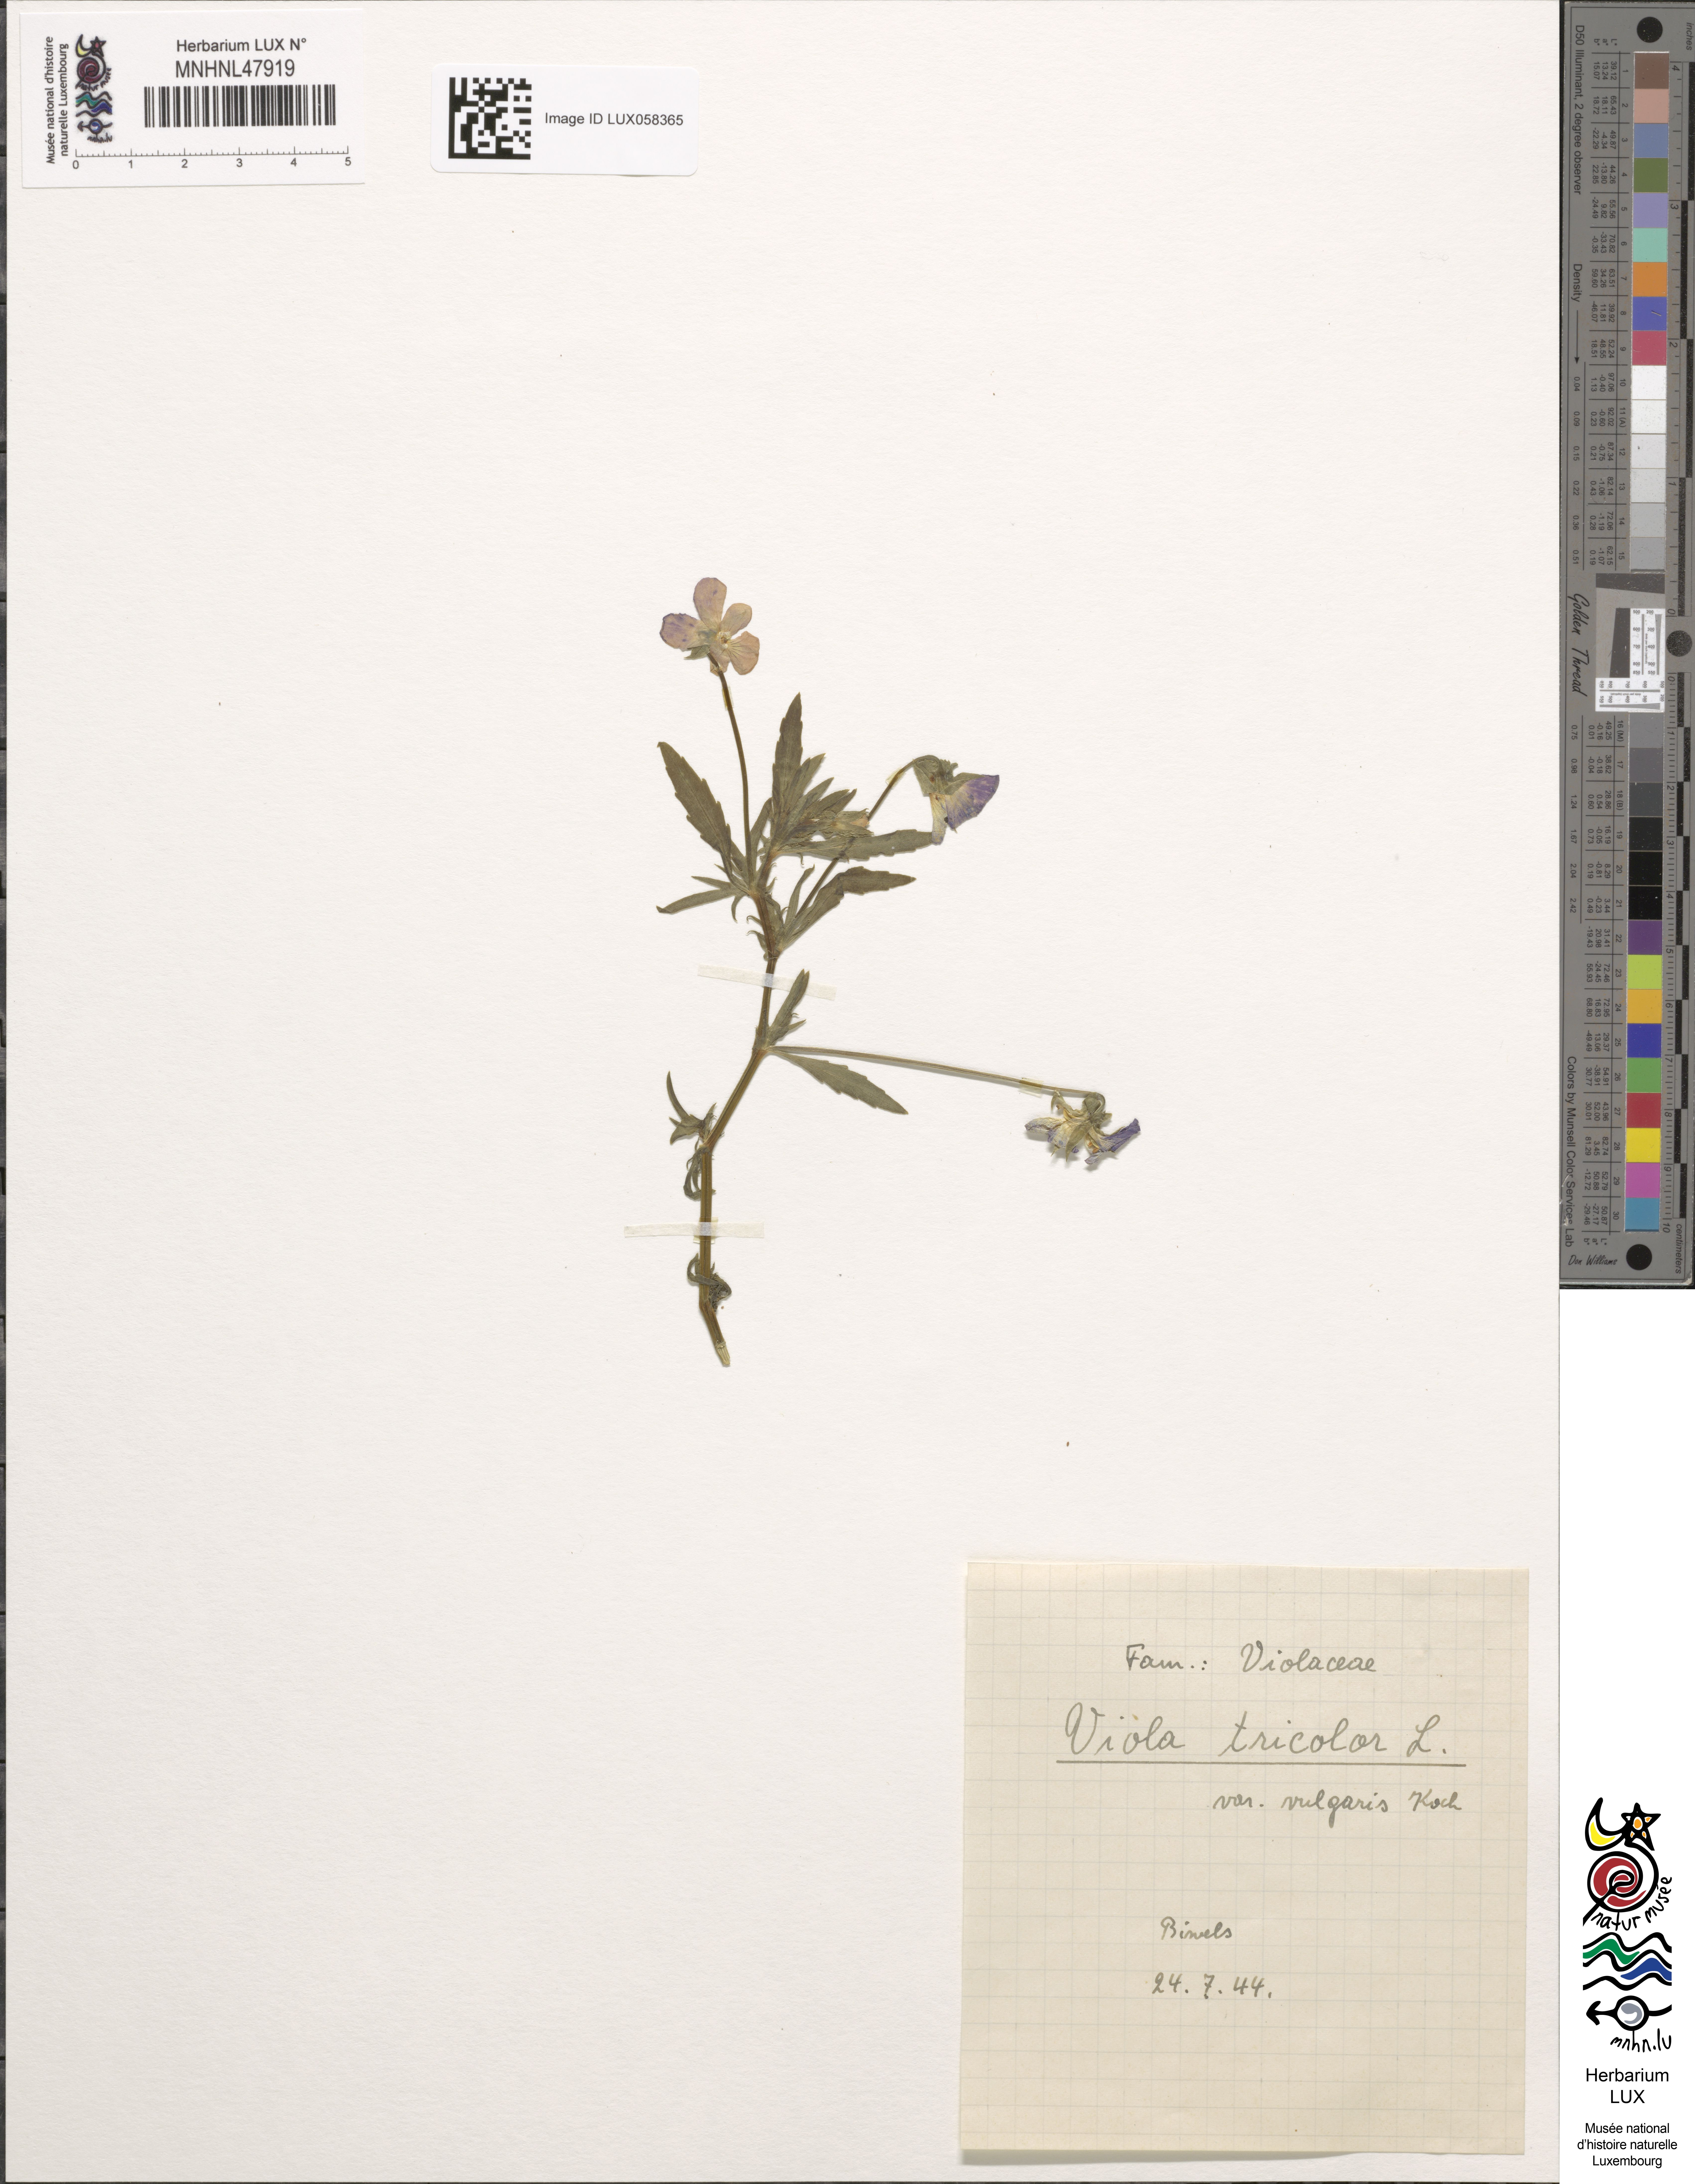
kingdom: Plantae
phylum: Tracheophyta
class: Magnoliopsida
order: Malpighiales
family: Violaceae
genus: Viola
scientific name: Viola tricolor
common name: Pansy
